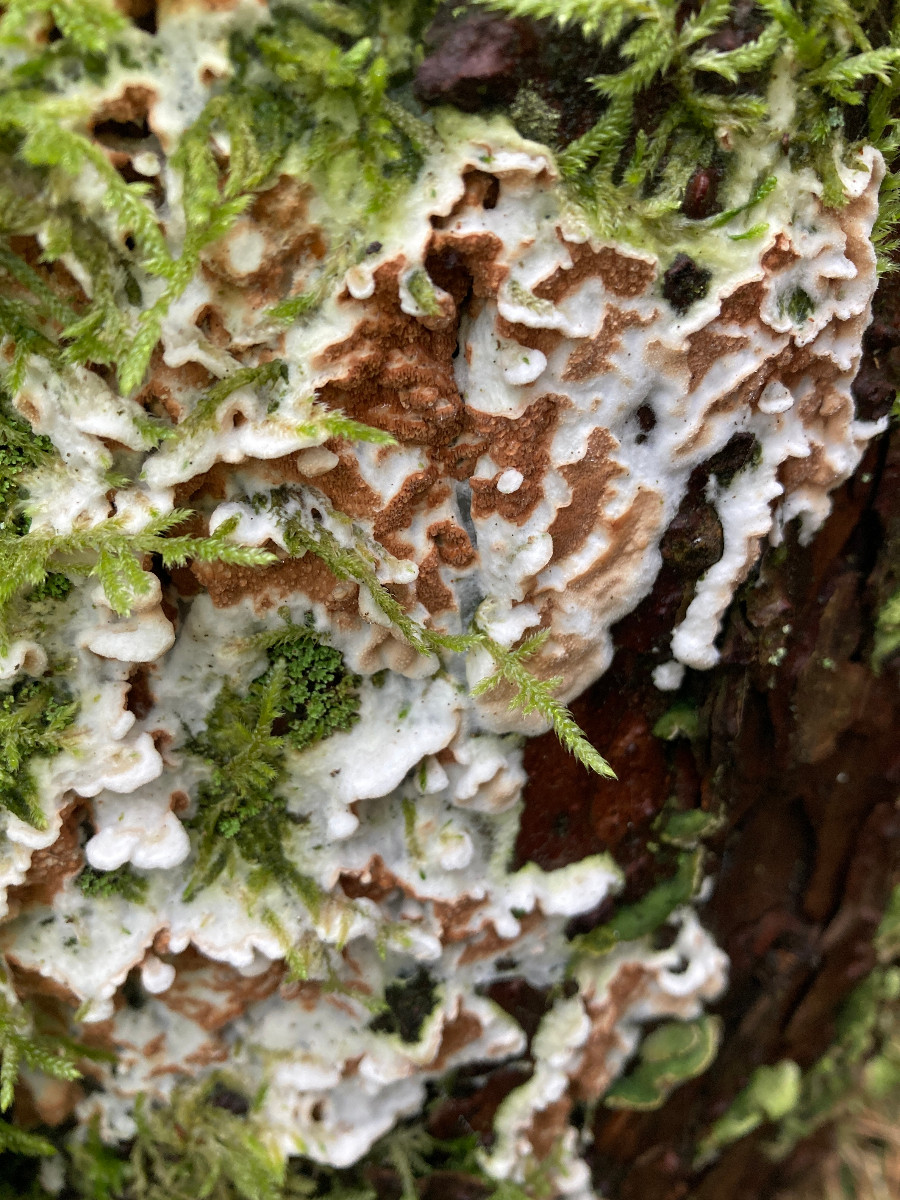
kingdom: Fungi
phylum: Basidiomycota
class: Agaricomycetes
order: Polyporales
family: Irpicaceae
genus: Meruliopsis
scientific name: Meruliopsis taxicola
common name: purpurbrun foldporesvamp
